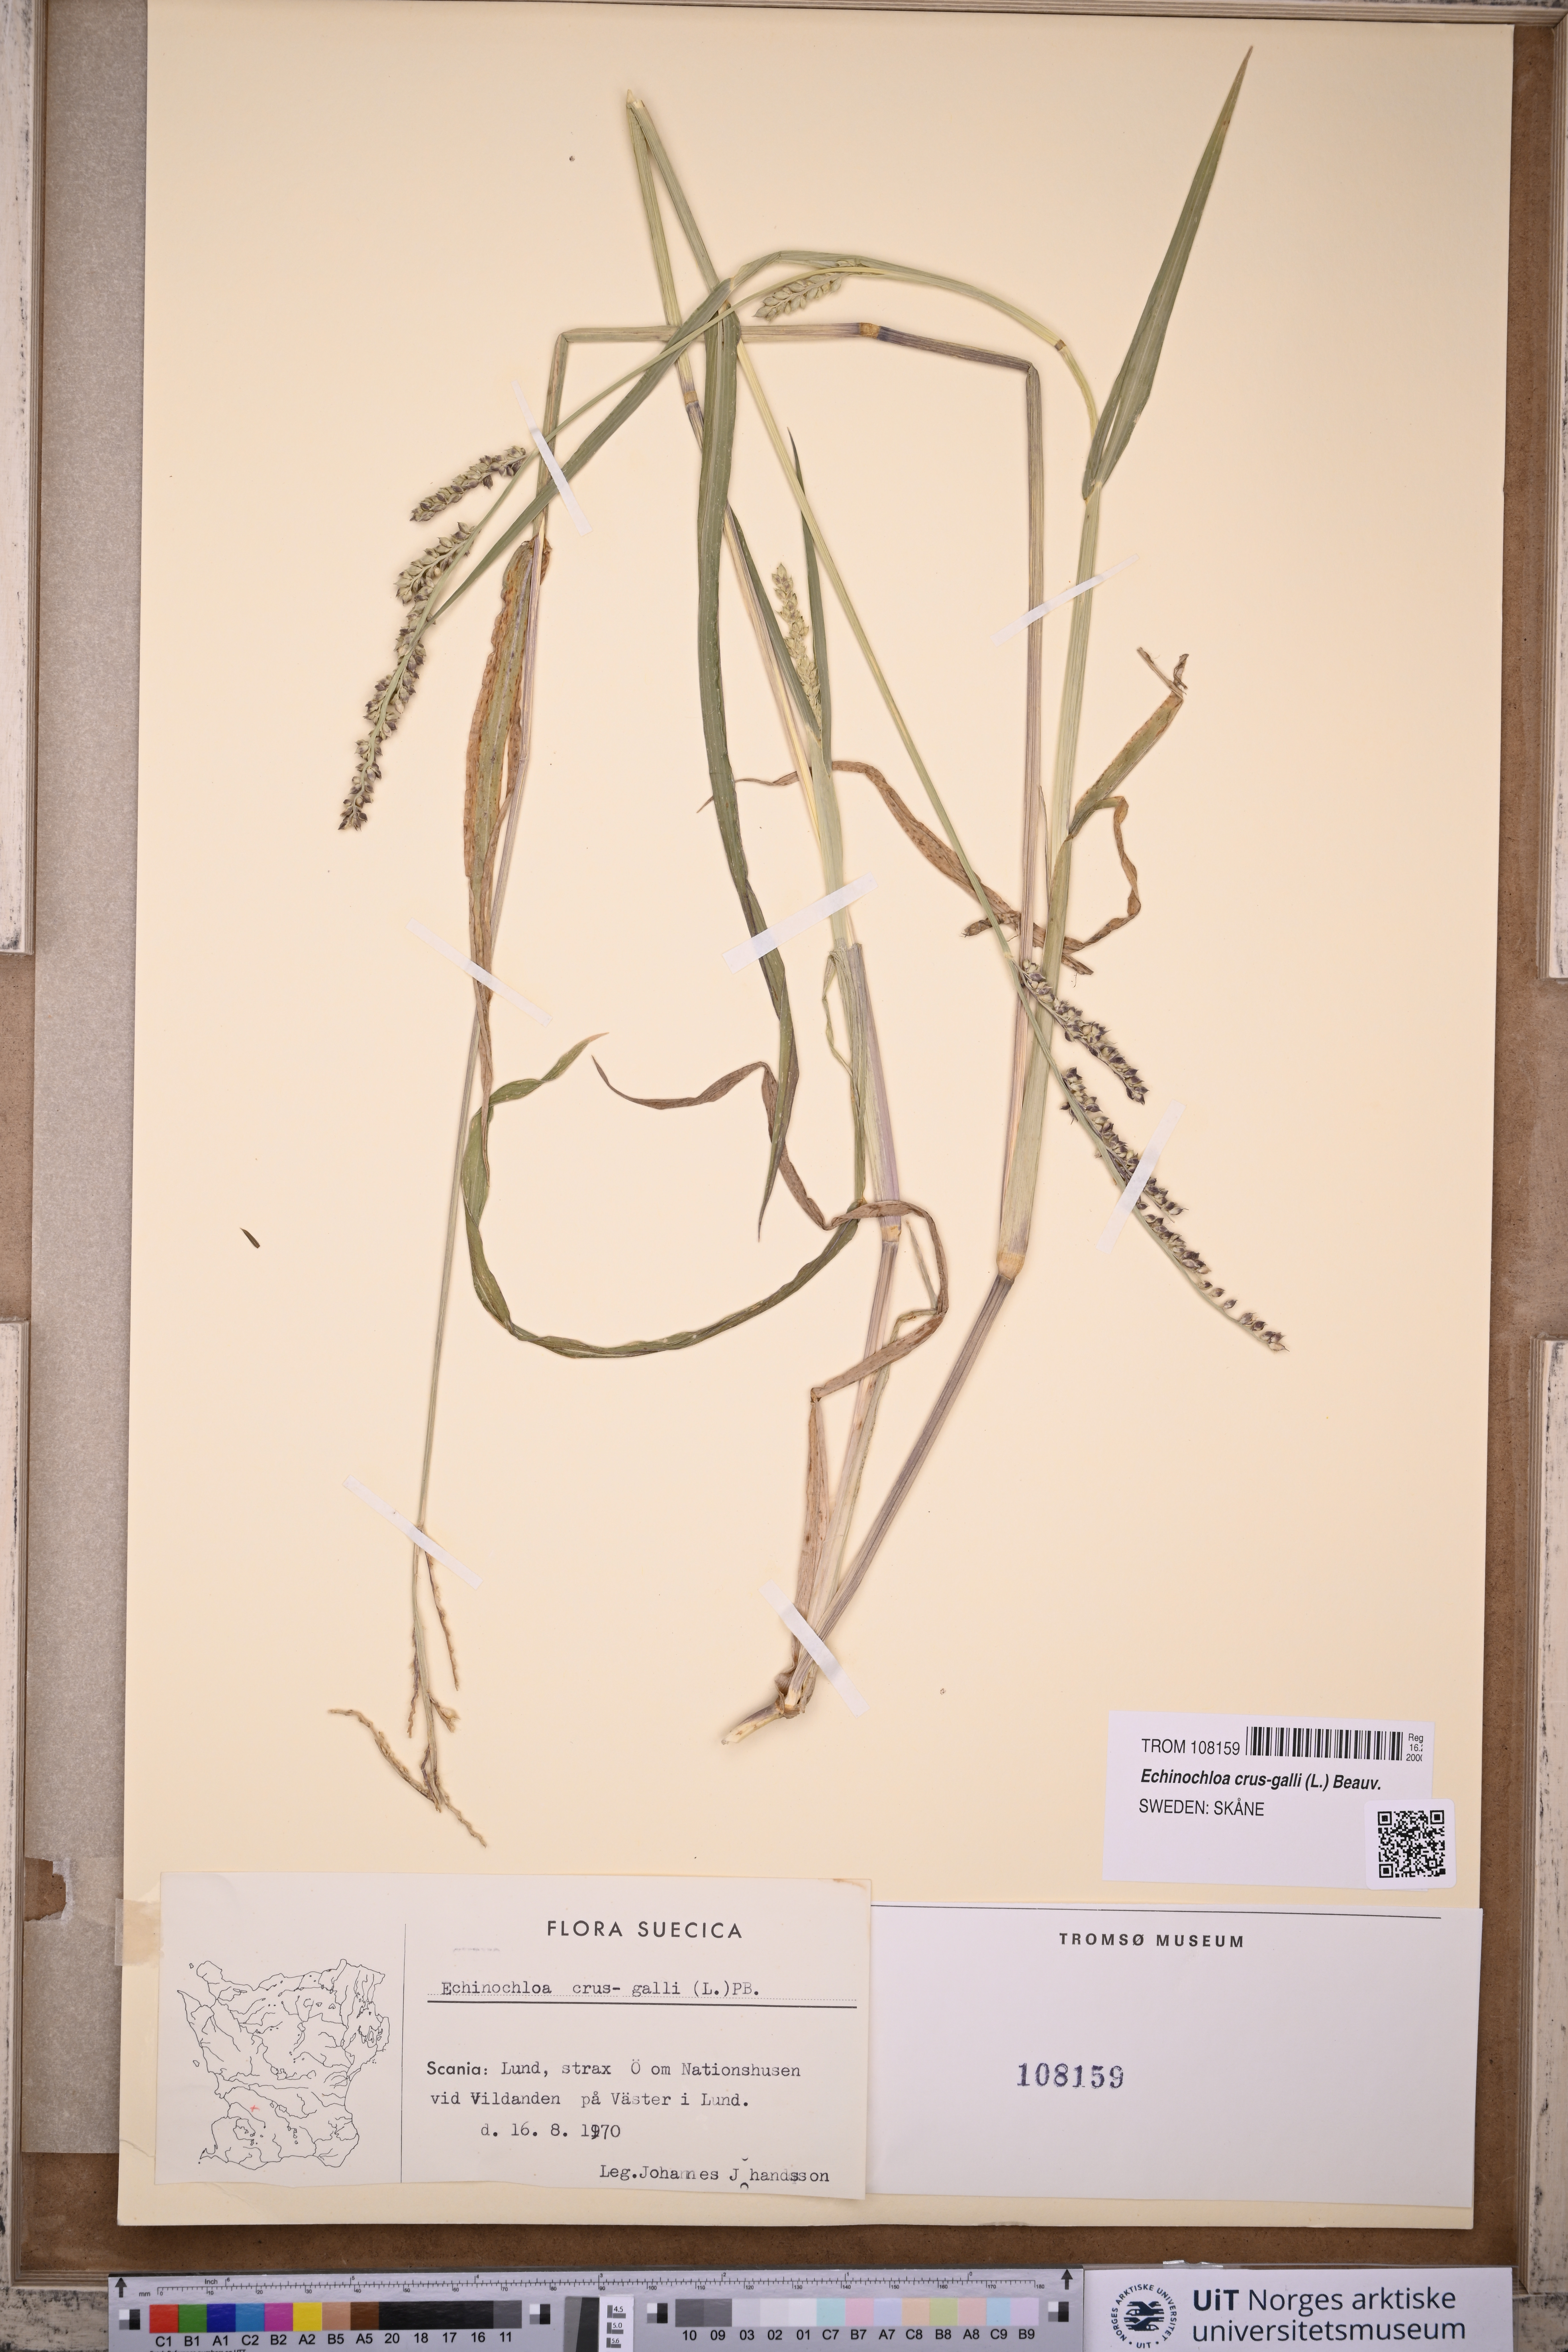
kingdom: Plantae
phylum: Tracheophyta
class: Liliopsida
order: Poales
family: Poaceae
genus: Echinochloa
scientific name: Echinochloa crus-galli
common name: Cockspur
